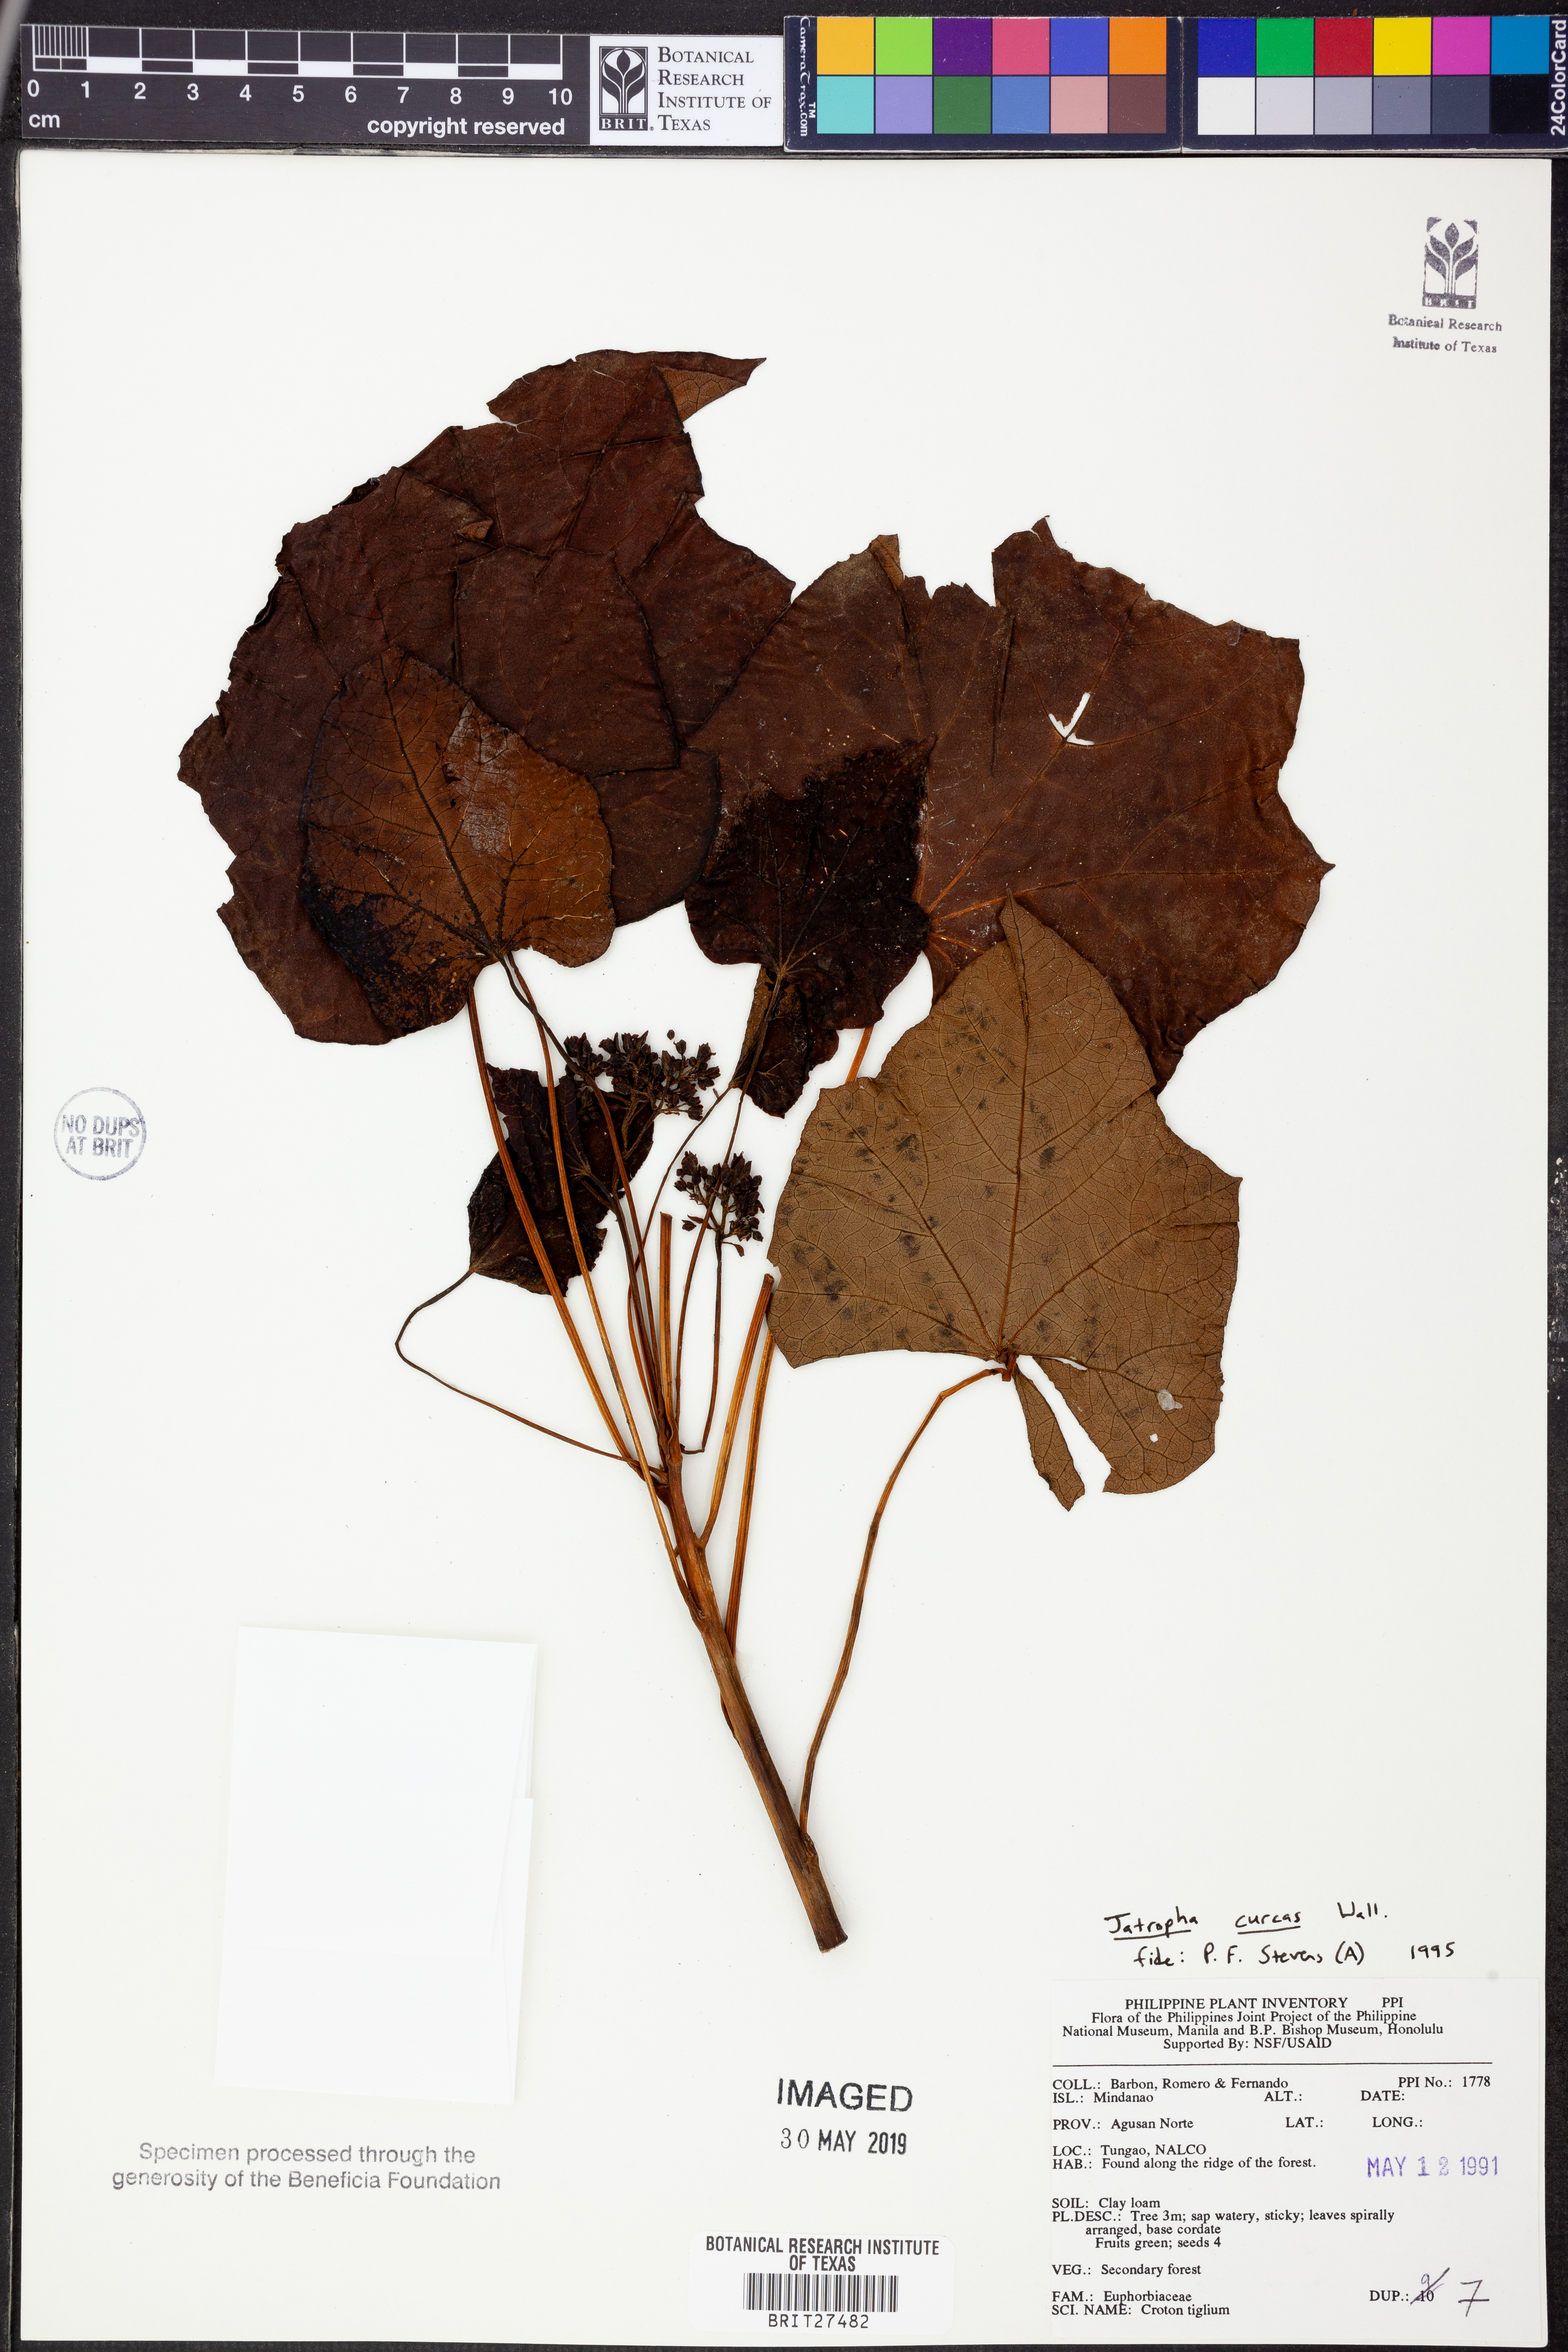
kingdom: Plantae
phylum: Tracheophyta
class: Magnoliopsida
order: Malpighiales
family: Euphorbiaceae
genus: Jatropha
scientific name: Jatropha curcas
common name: Barbados nut
